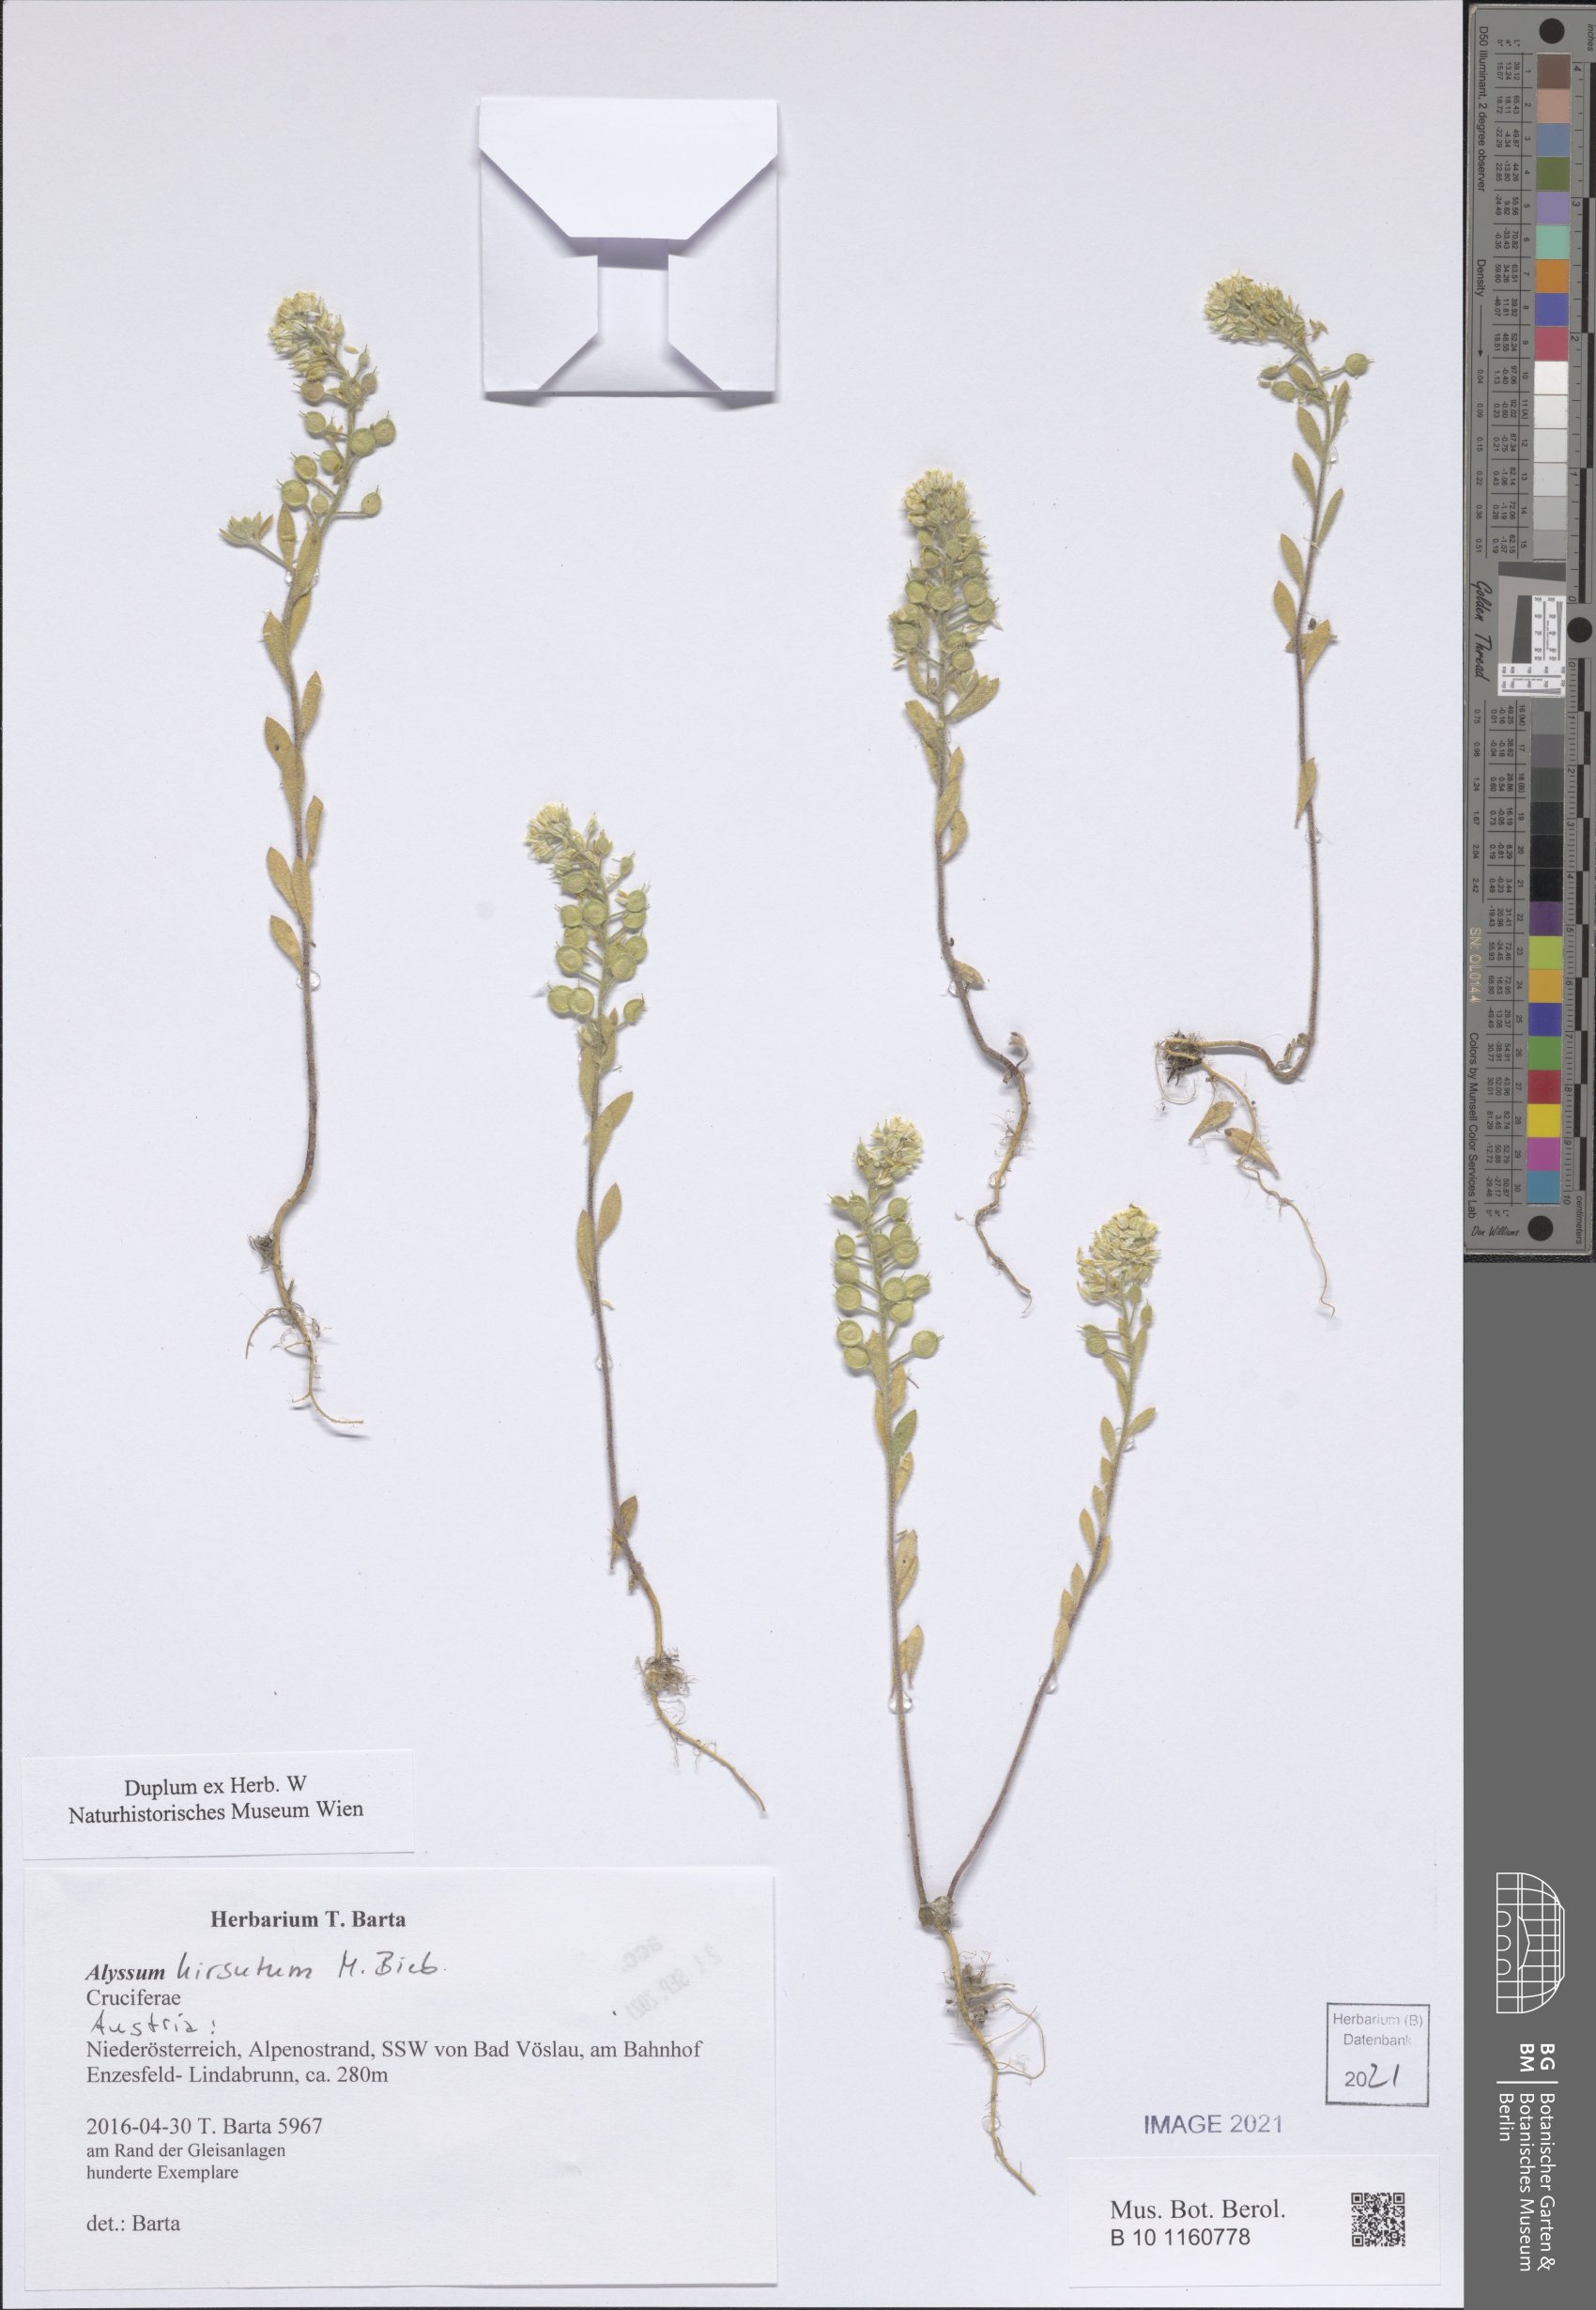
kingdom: Plantae
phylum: Tracheophyta
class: Magnoliopsida
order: Brassicales
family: Brassicaceae
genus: Alyssum
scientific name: Alyssum hirsutum
